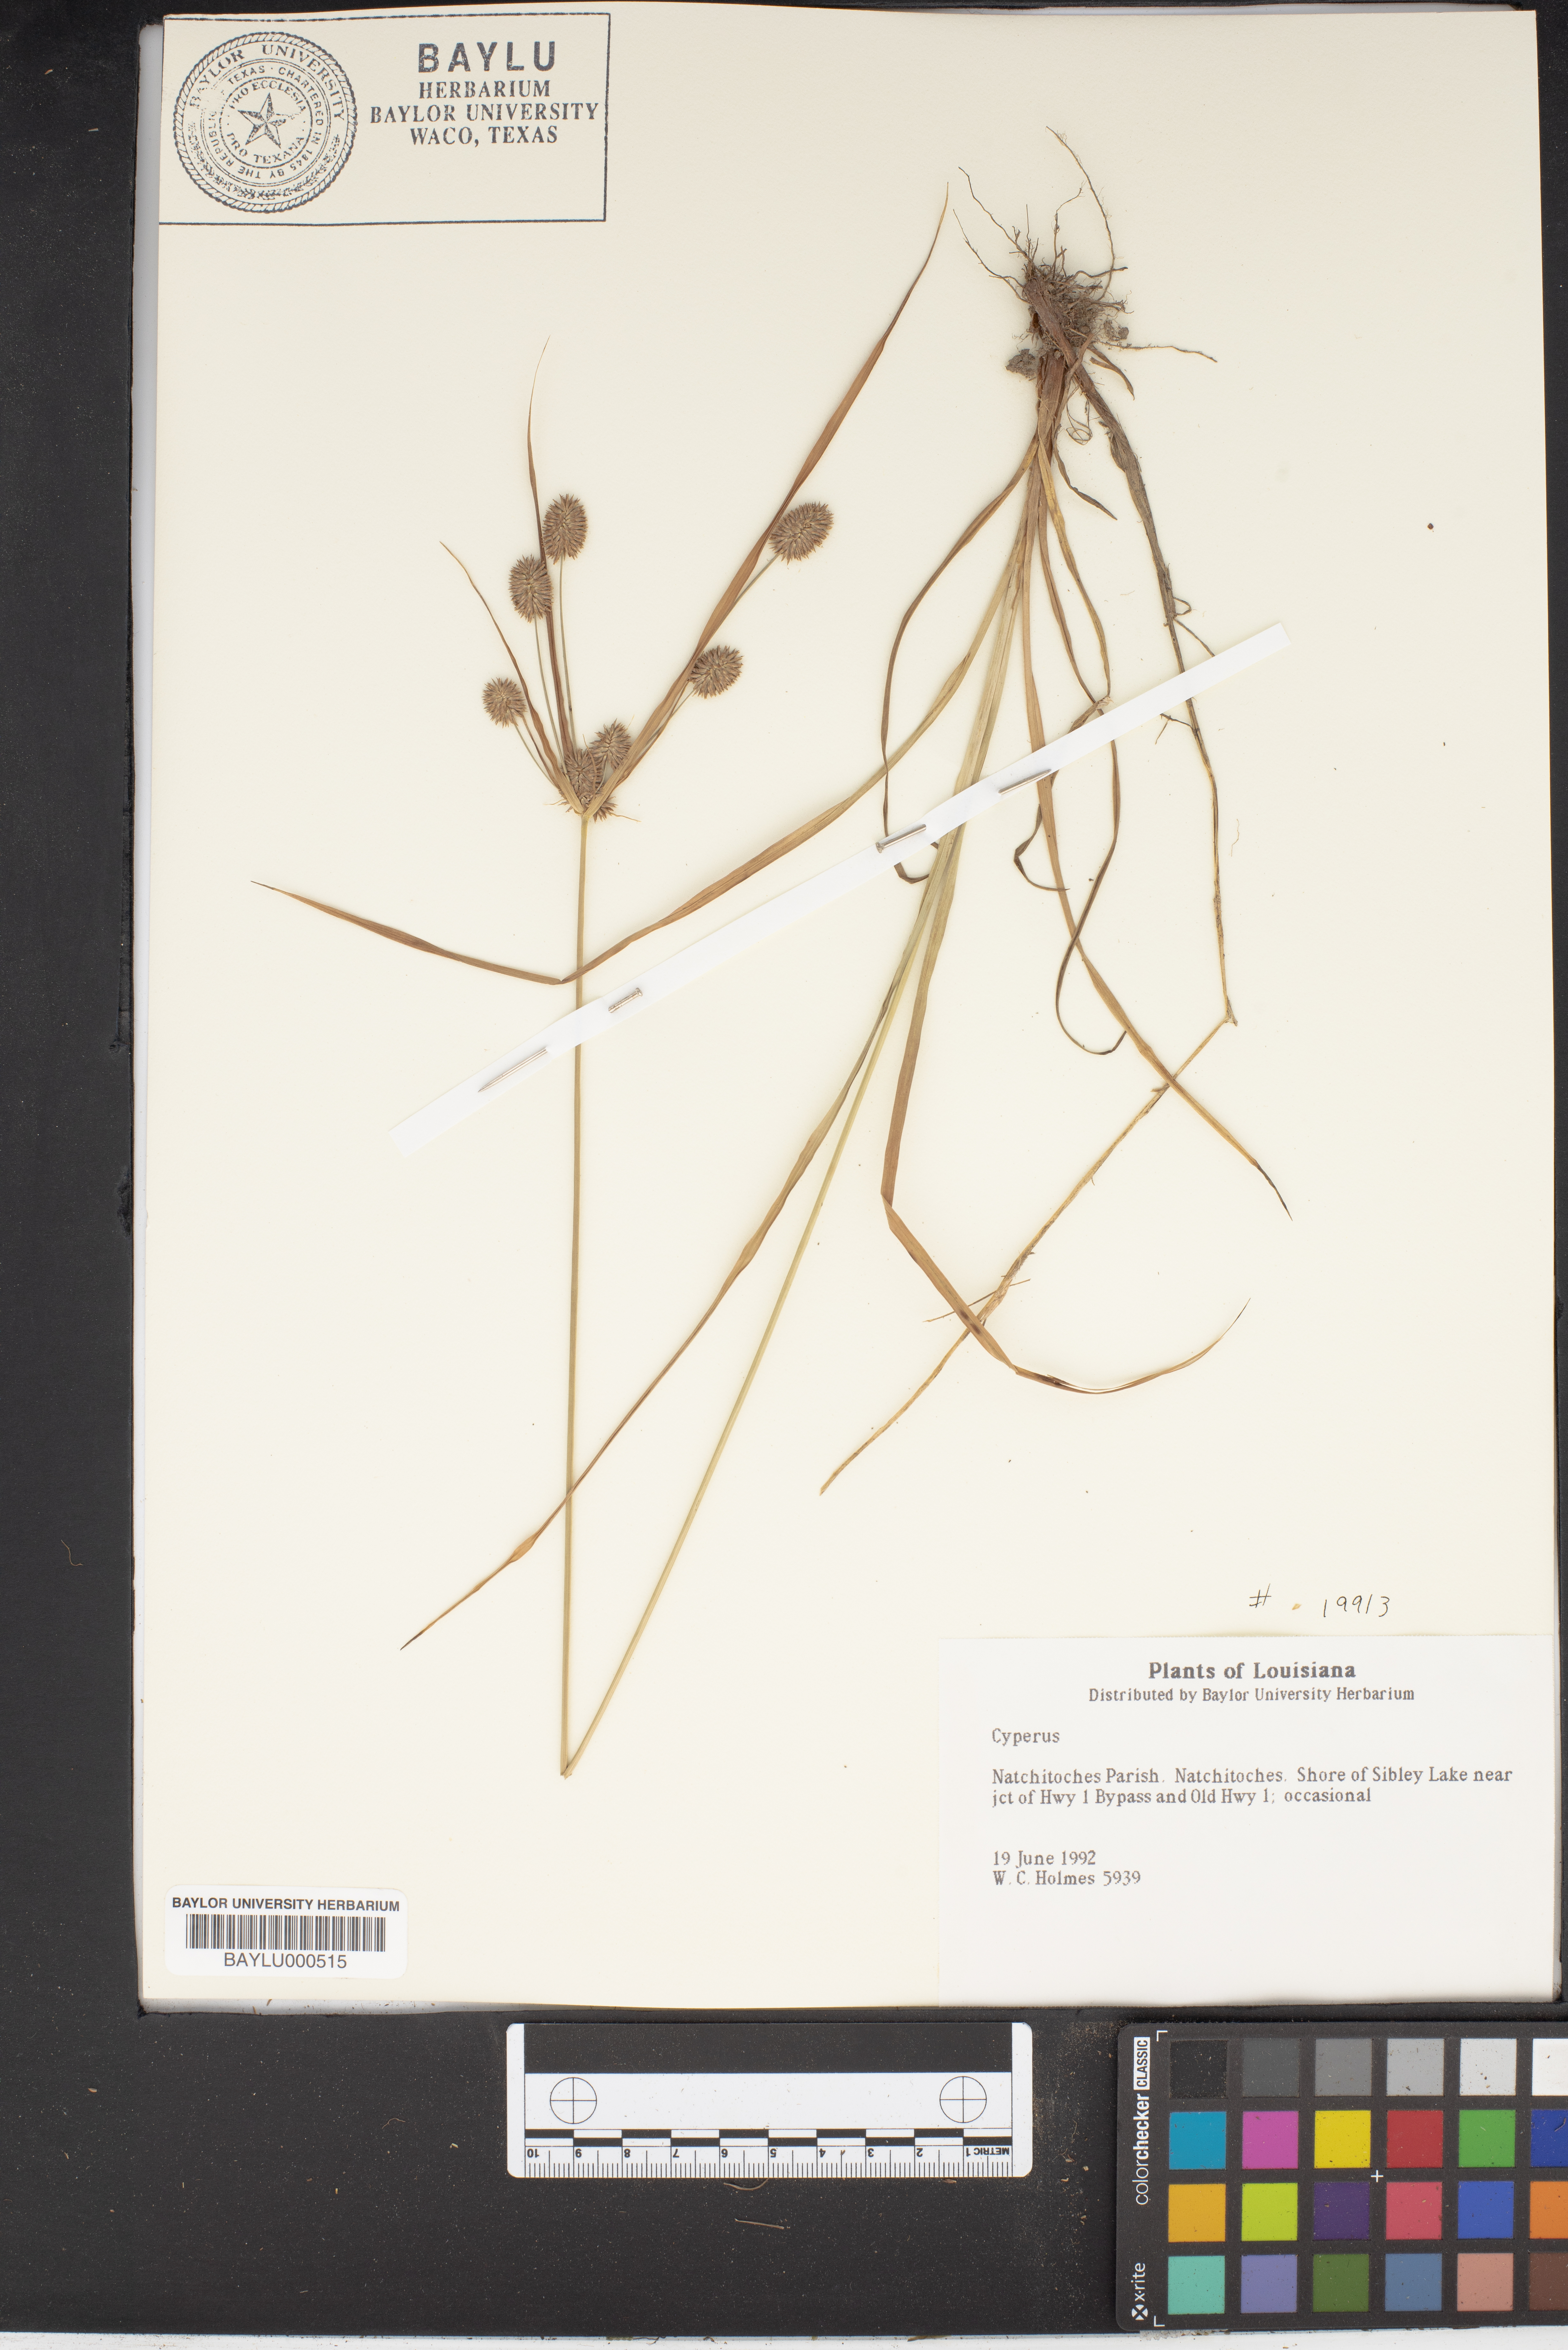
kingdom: Plantae
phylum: Tracheophyta
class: Liliopsida
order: Poales
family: Cyperaceae
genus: Cyperus
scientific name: Cyperus
